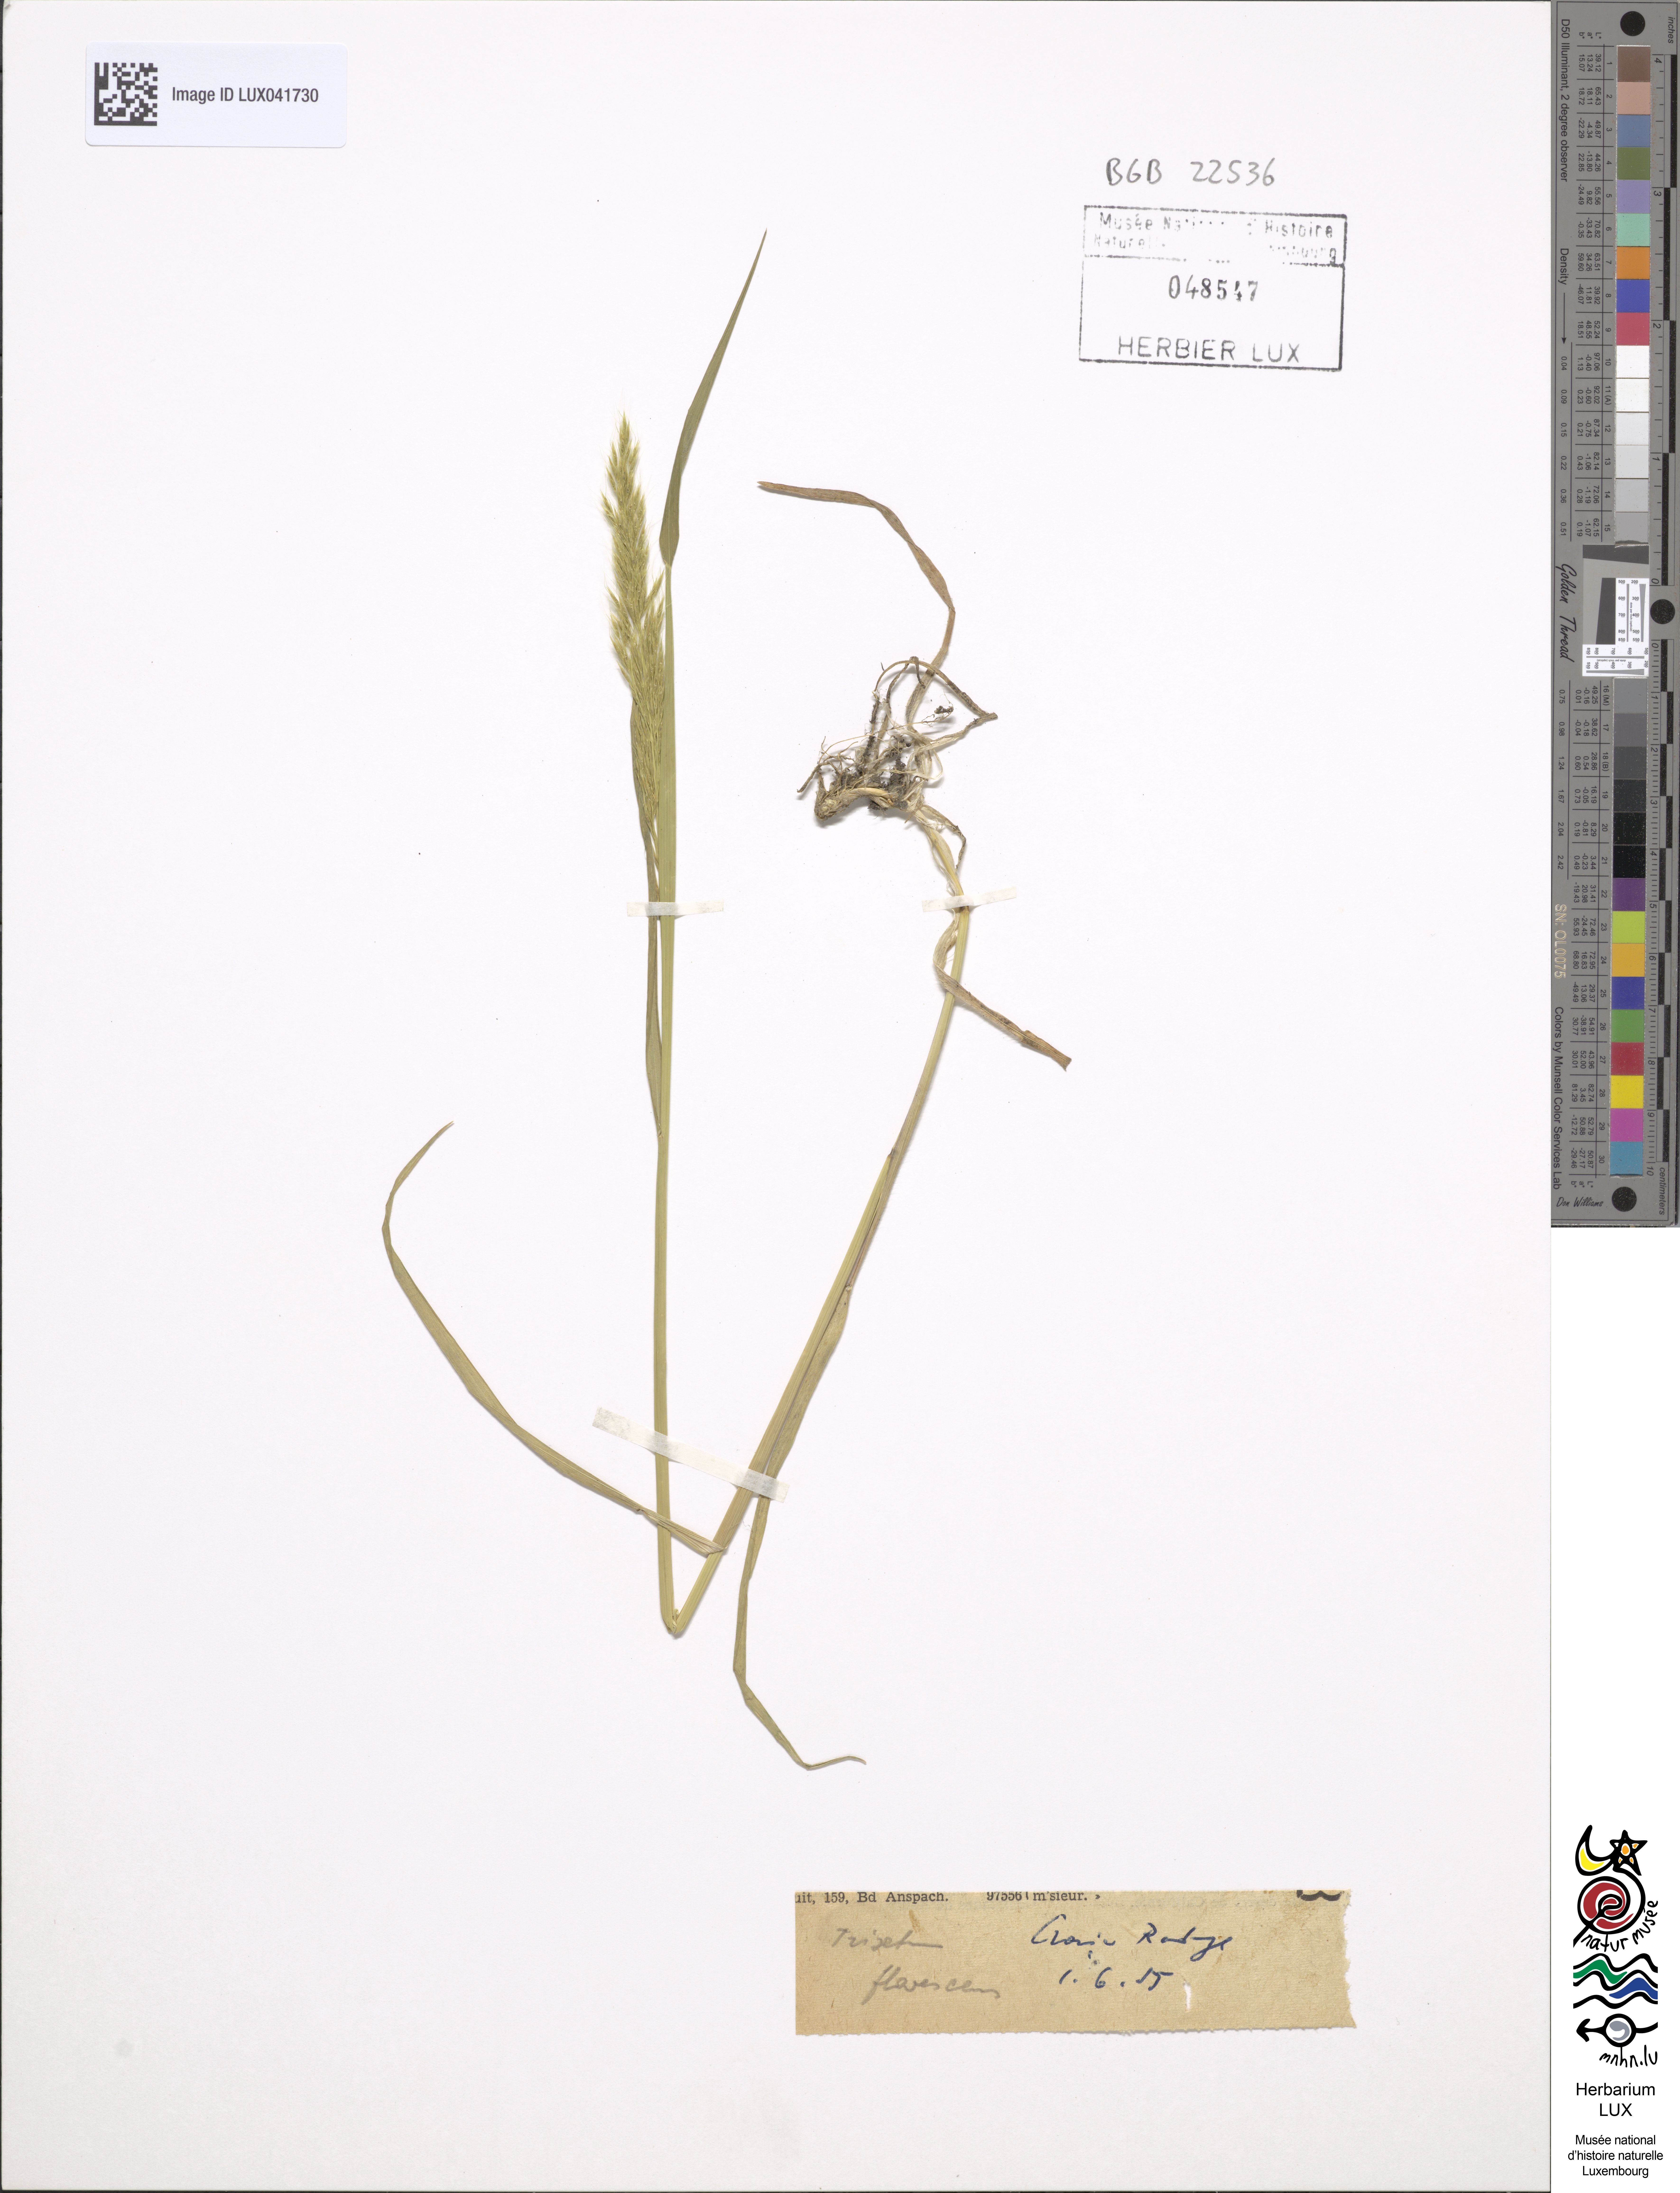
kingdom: Plantae
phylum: Tracheophyta
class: Liliopsida
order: Poales
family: Poaceae
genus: Trisetum
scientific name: Trisetum flavescens
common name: Yellow oat-grass
